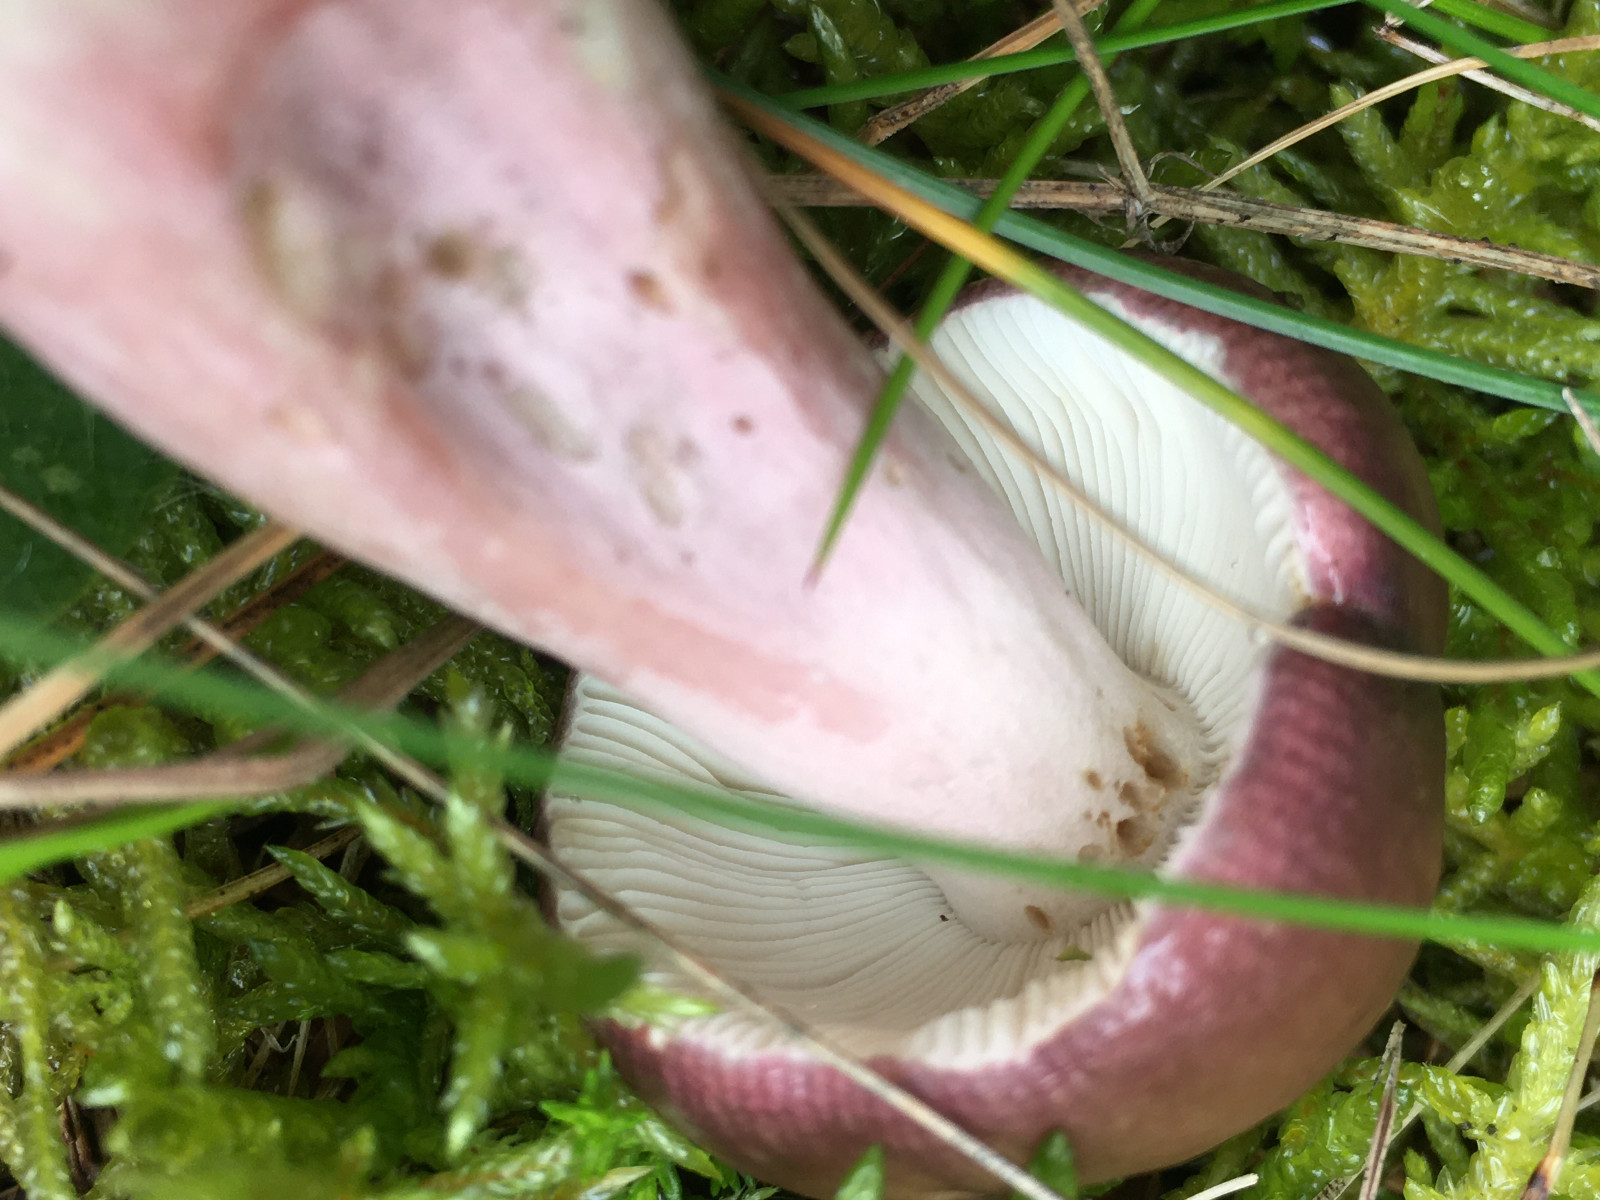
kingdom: Fungi
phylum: Basidiomycota
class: Agaricomycetes
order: Russulales
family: Russulaceae
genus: Russula
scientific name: Russula queletii
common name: Quélets skørhat
